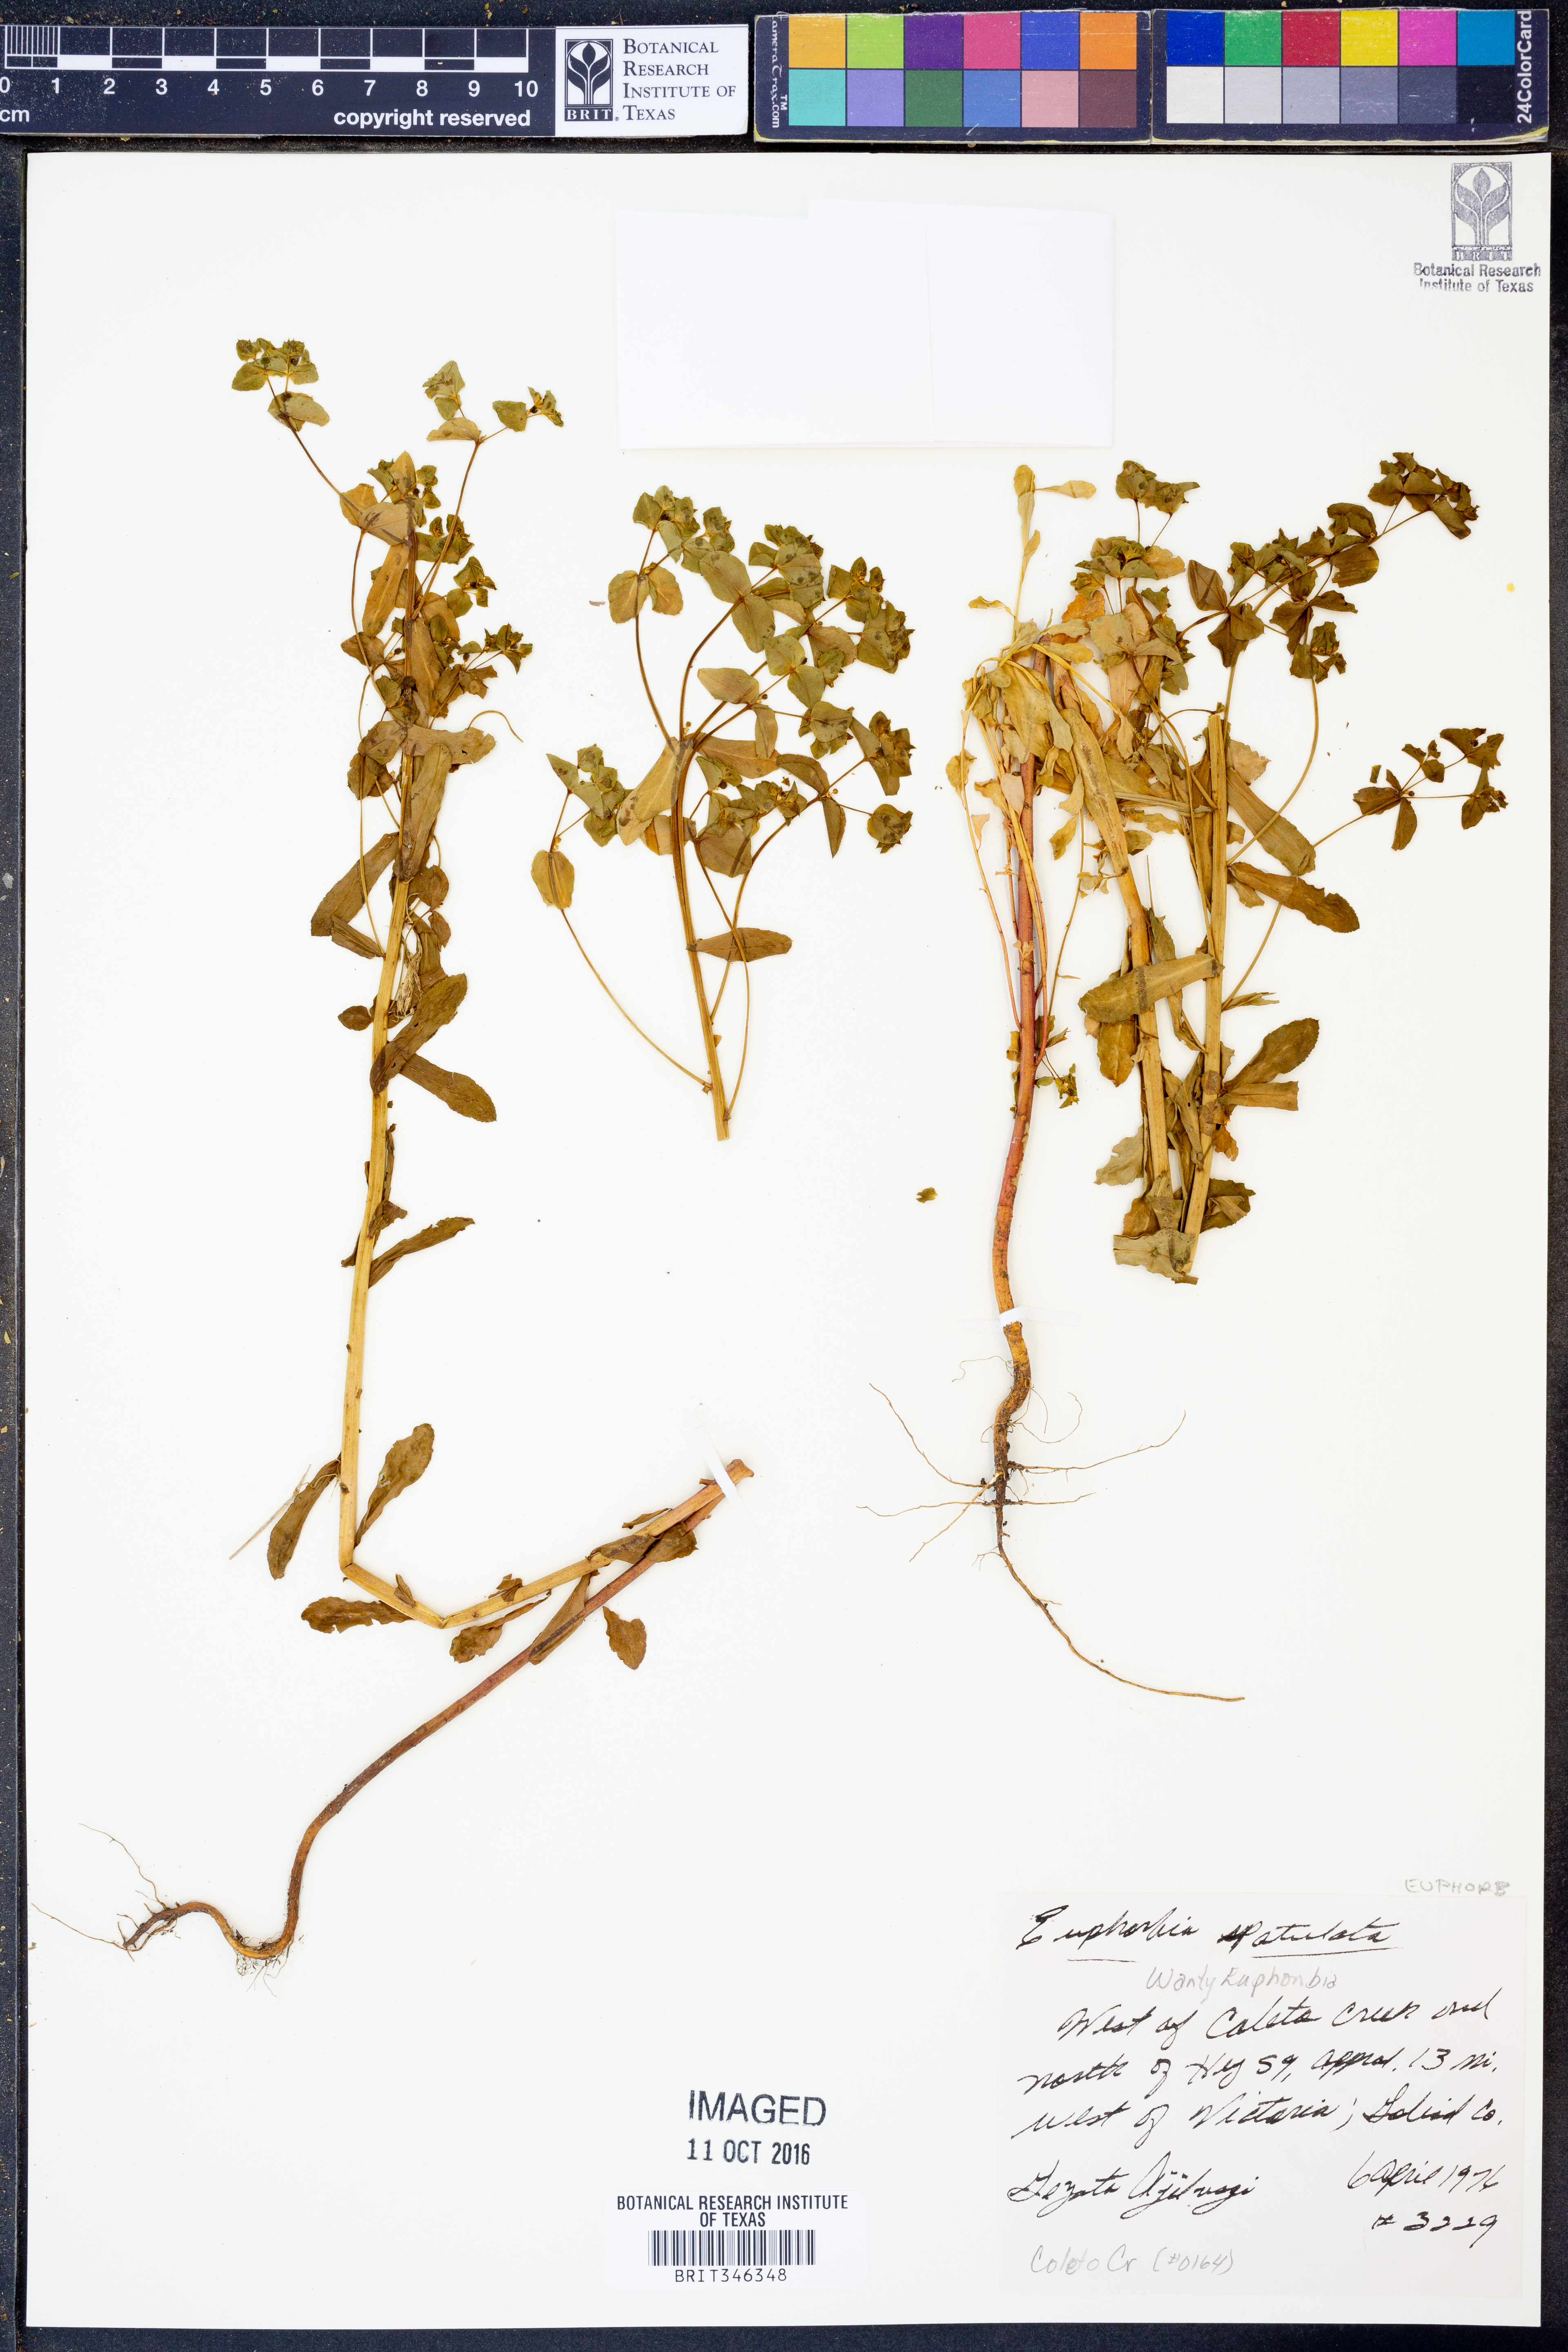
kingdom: Plantae
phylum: Tracheophyta
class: Magnoliopsida
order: Malpighiales
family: Euphorbiaceae
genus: Euphorbia
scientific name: Euphorbia spathulata
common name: Blunt spurge
